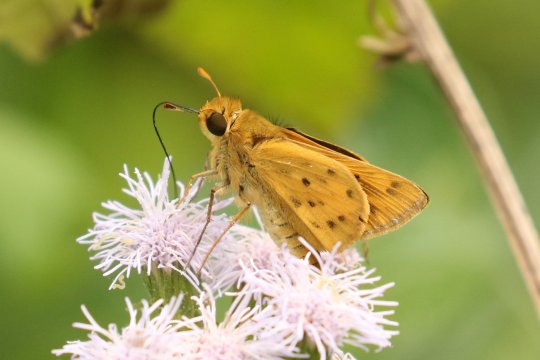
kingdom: Animalia
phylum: Arthropoda
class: Insecta
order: Lepidoptera
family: Hesperiidae
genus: Hylephila
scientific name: Hylephila phyleus
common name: Fiery Skipper
